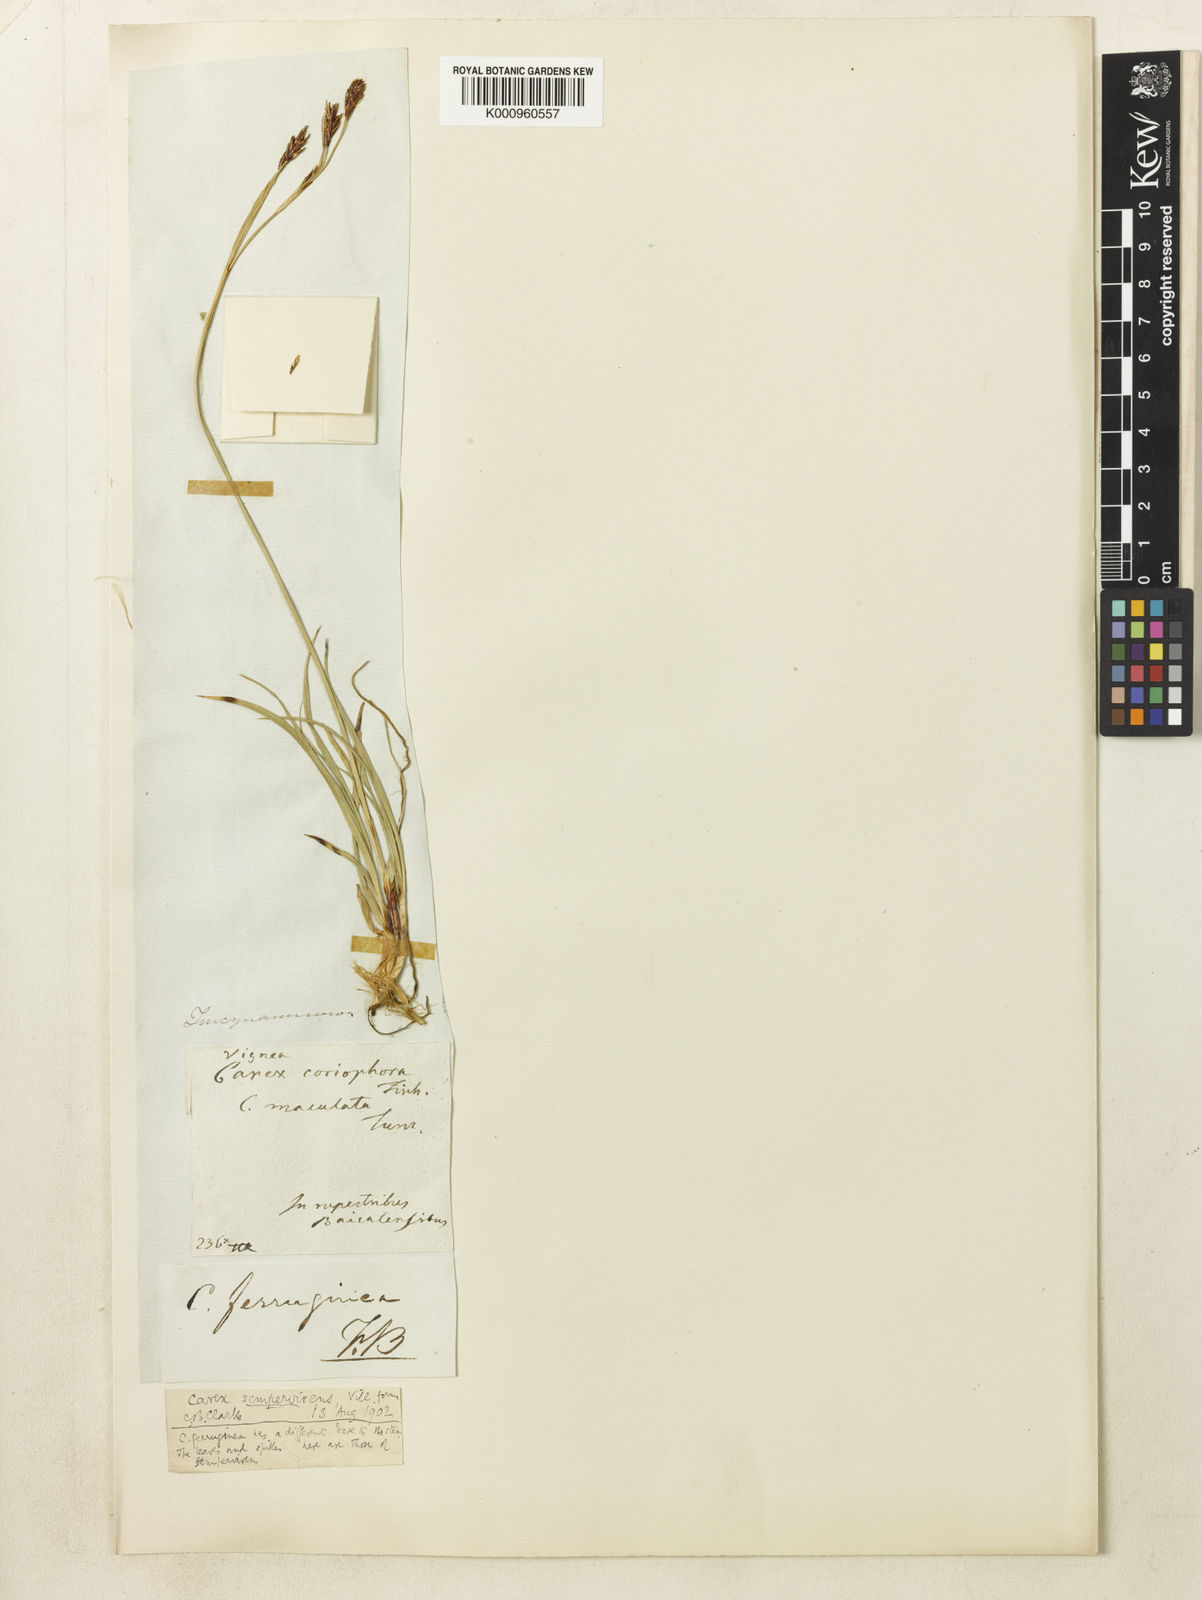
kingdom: Plantae
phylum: Tracheophyta
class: Liliopsida
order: Poales
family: Cyperaceae
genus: Carex
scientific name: Carex sempervirens
